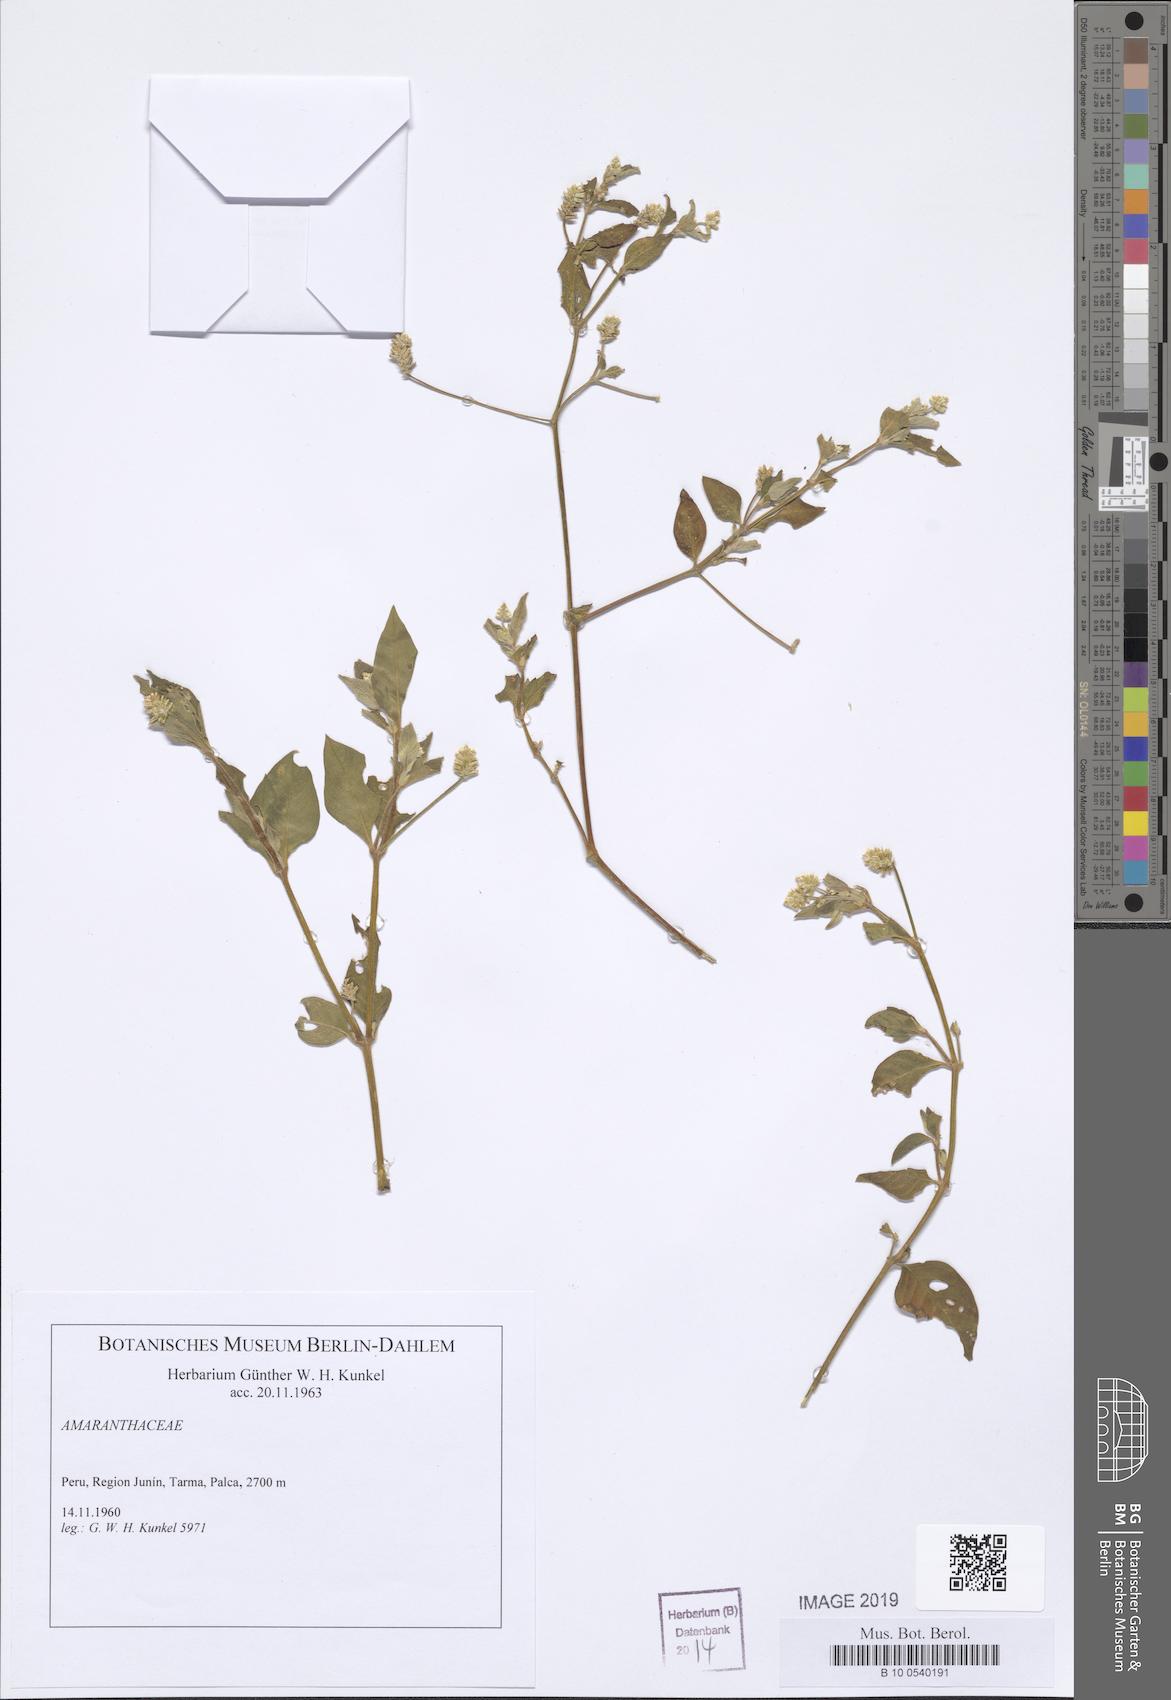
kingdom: Plantae
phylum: Tracheophyta
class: Magnoliopsida
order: Caryophyllales
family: Amaranthaceae
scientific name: Amaranthaceae
